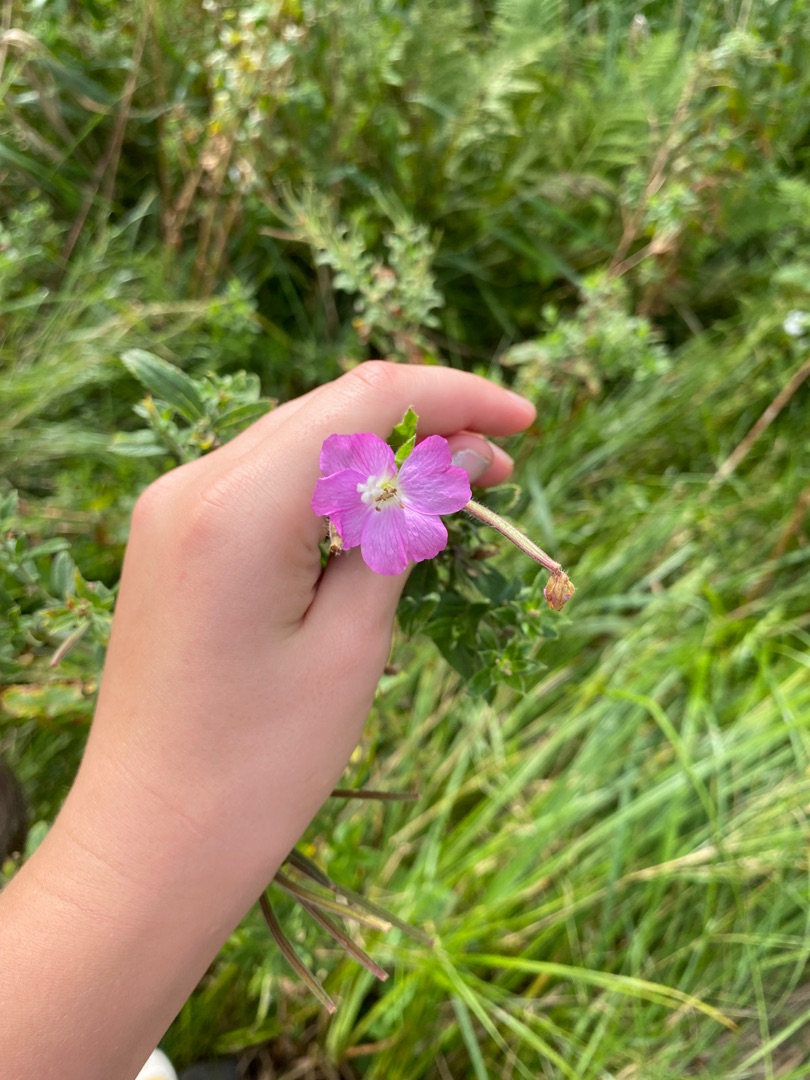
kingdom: Plantae
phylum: Tracheophyta
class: Magnoliopsida
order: Myrtales
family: Onagraceae
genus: Epilobium
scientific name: Epilobium hirsutum
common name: Lådden dueurt
